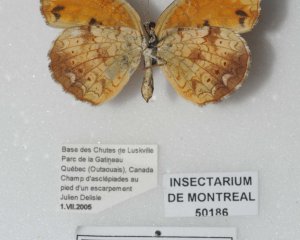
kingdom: Animalia
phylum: Arthropoda
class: Insecta
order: Lepidoptera
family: Nymphalidae
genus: Phyciodes
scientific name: Phyciodes tharos
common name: Pearl Crescent
